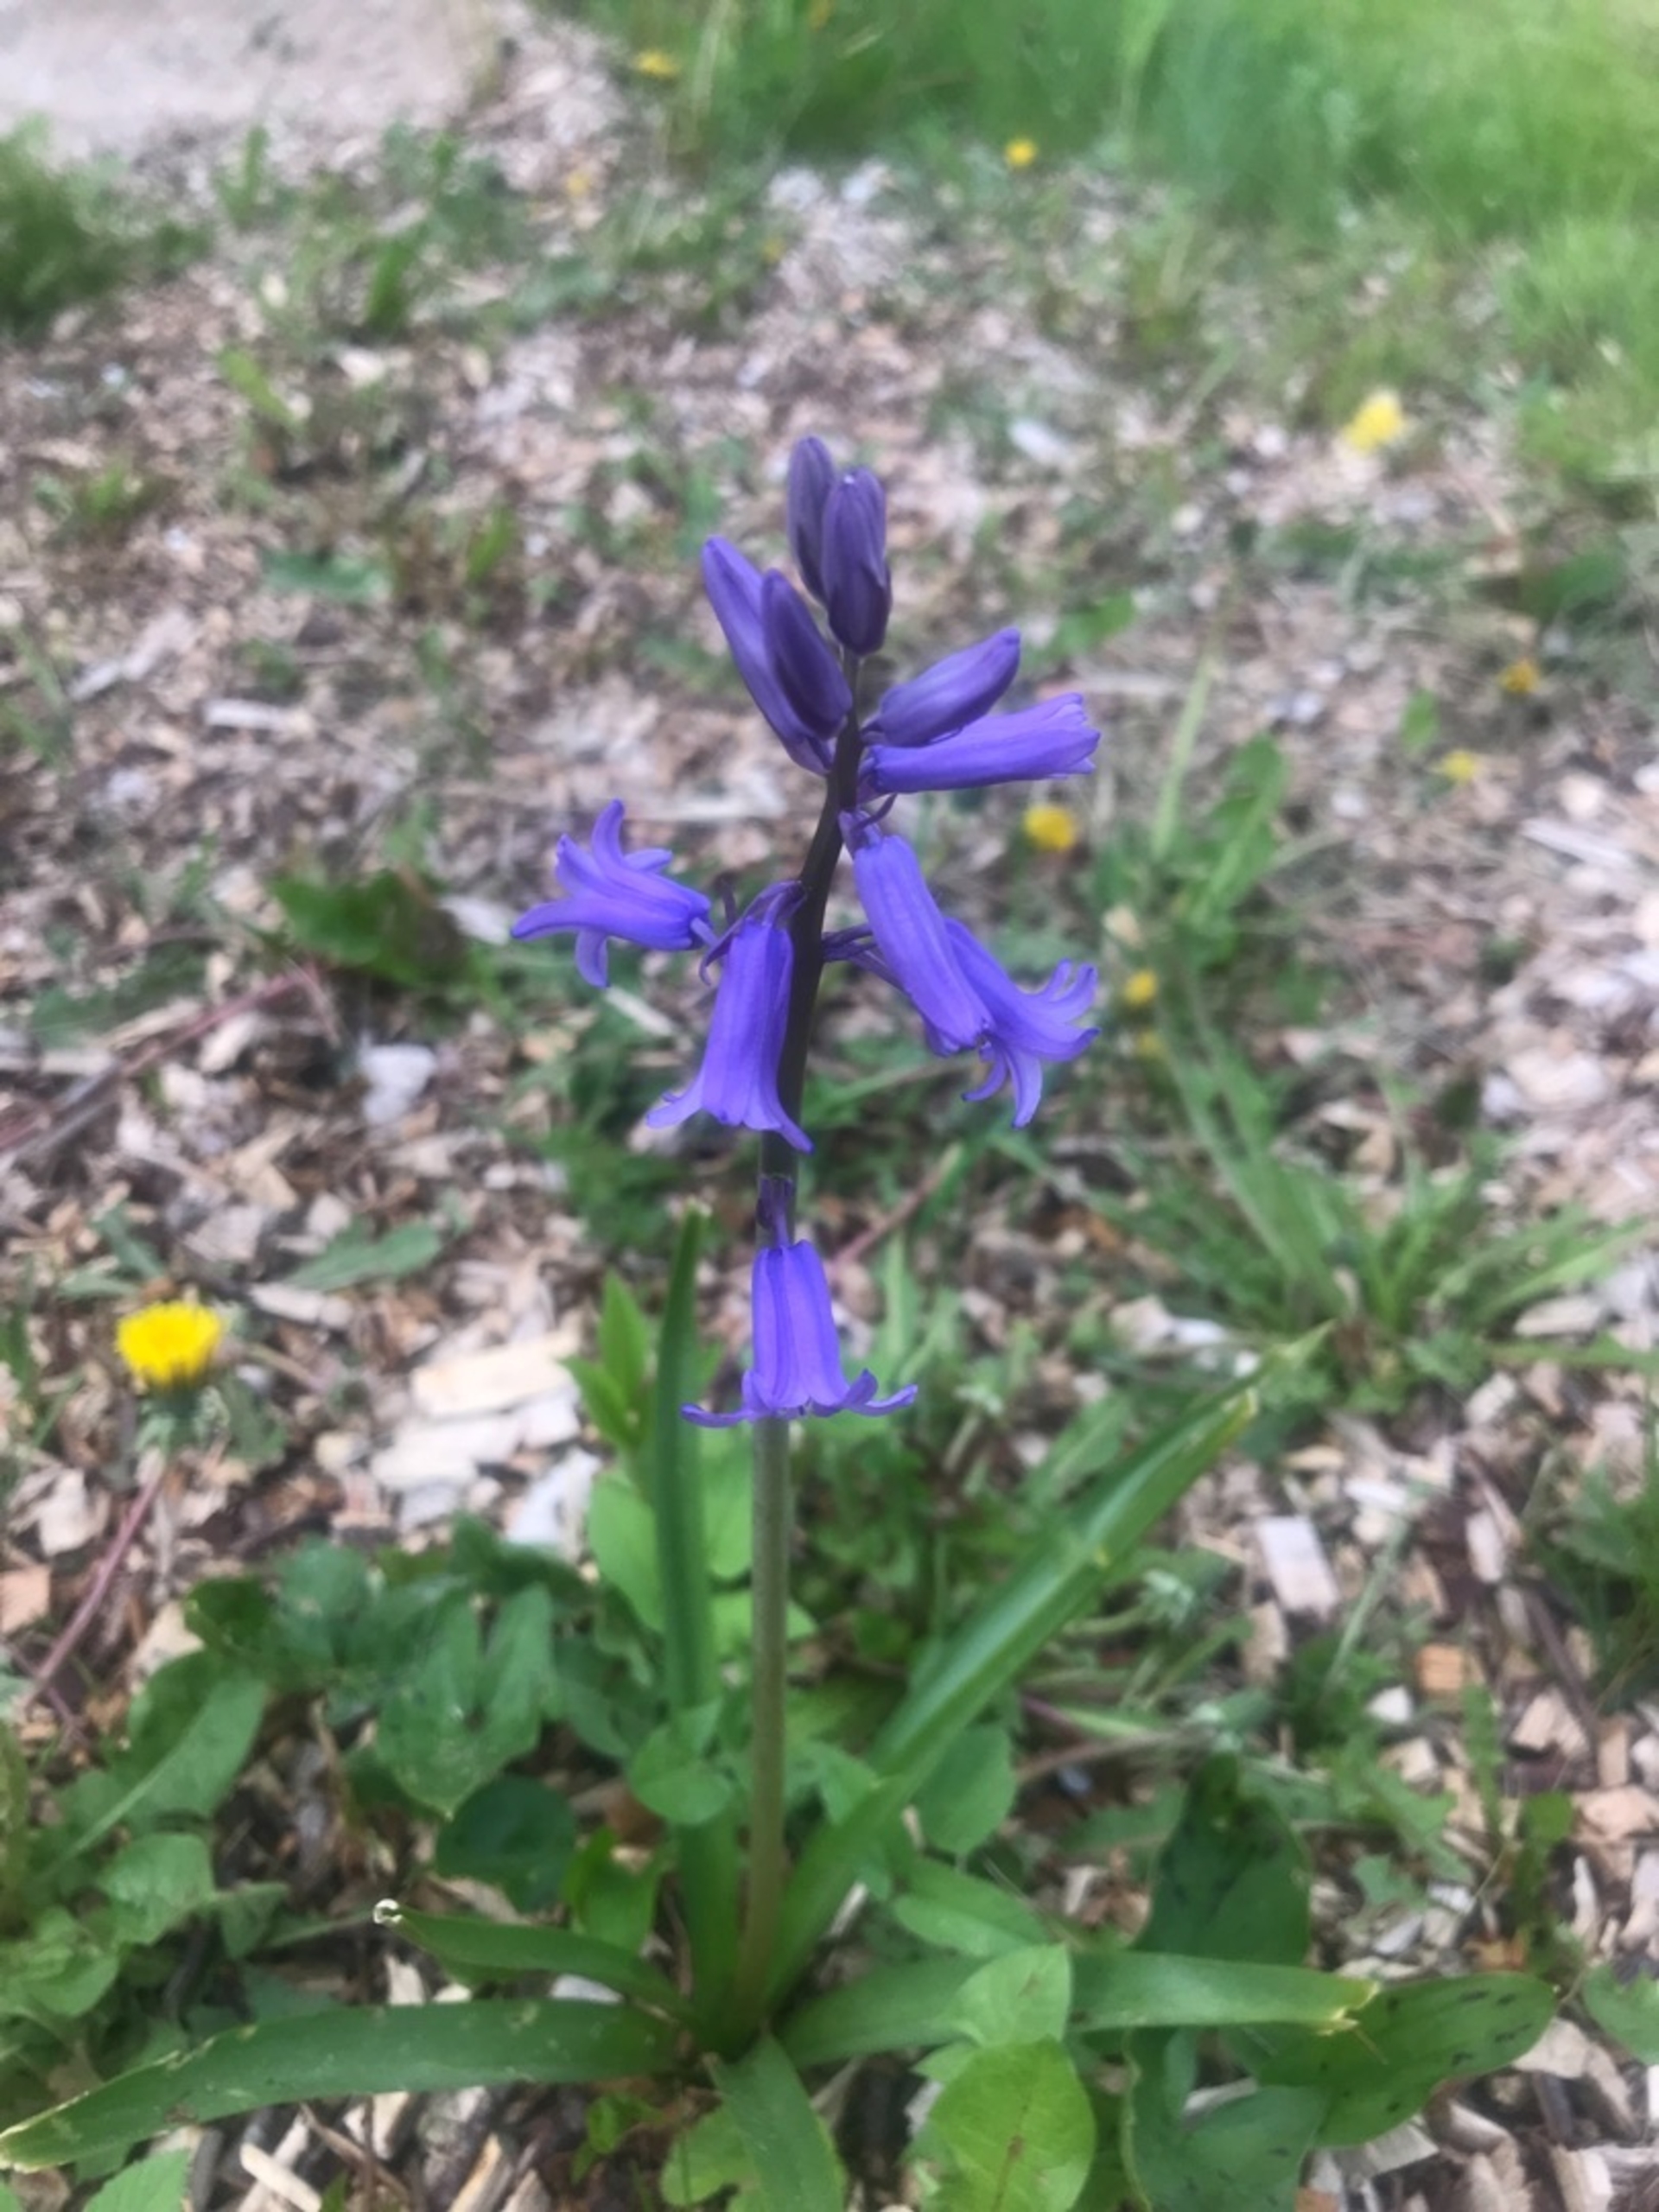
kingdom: Plantae
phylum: Tracheophyta
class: Liliopsida
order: Asparagales
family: Asparagaceae
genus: Hyacinthoides
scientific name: Hyacinthoides massartiana
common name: Hybrid-klokkeskilla
